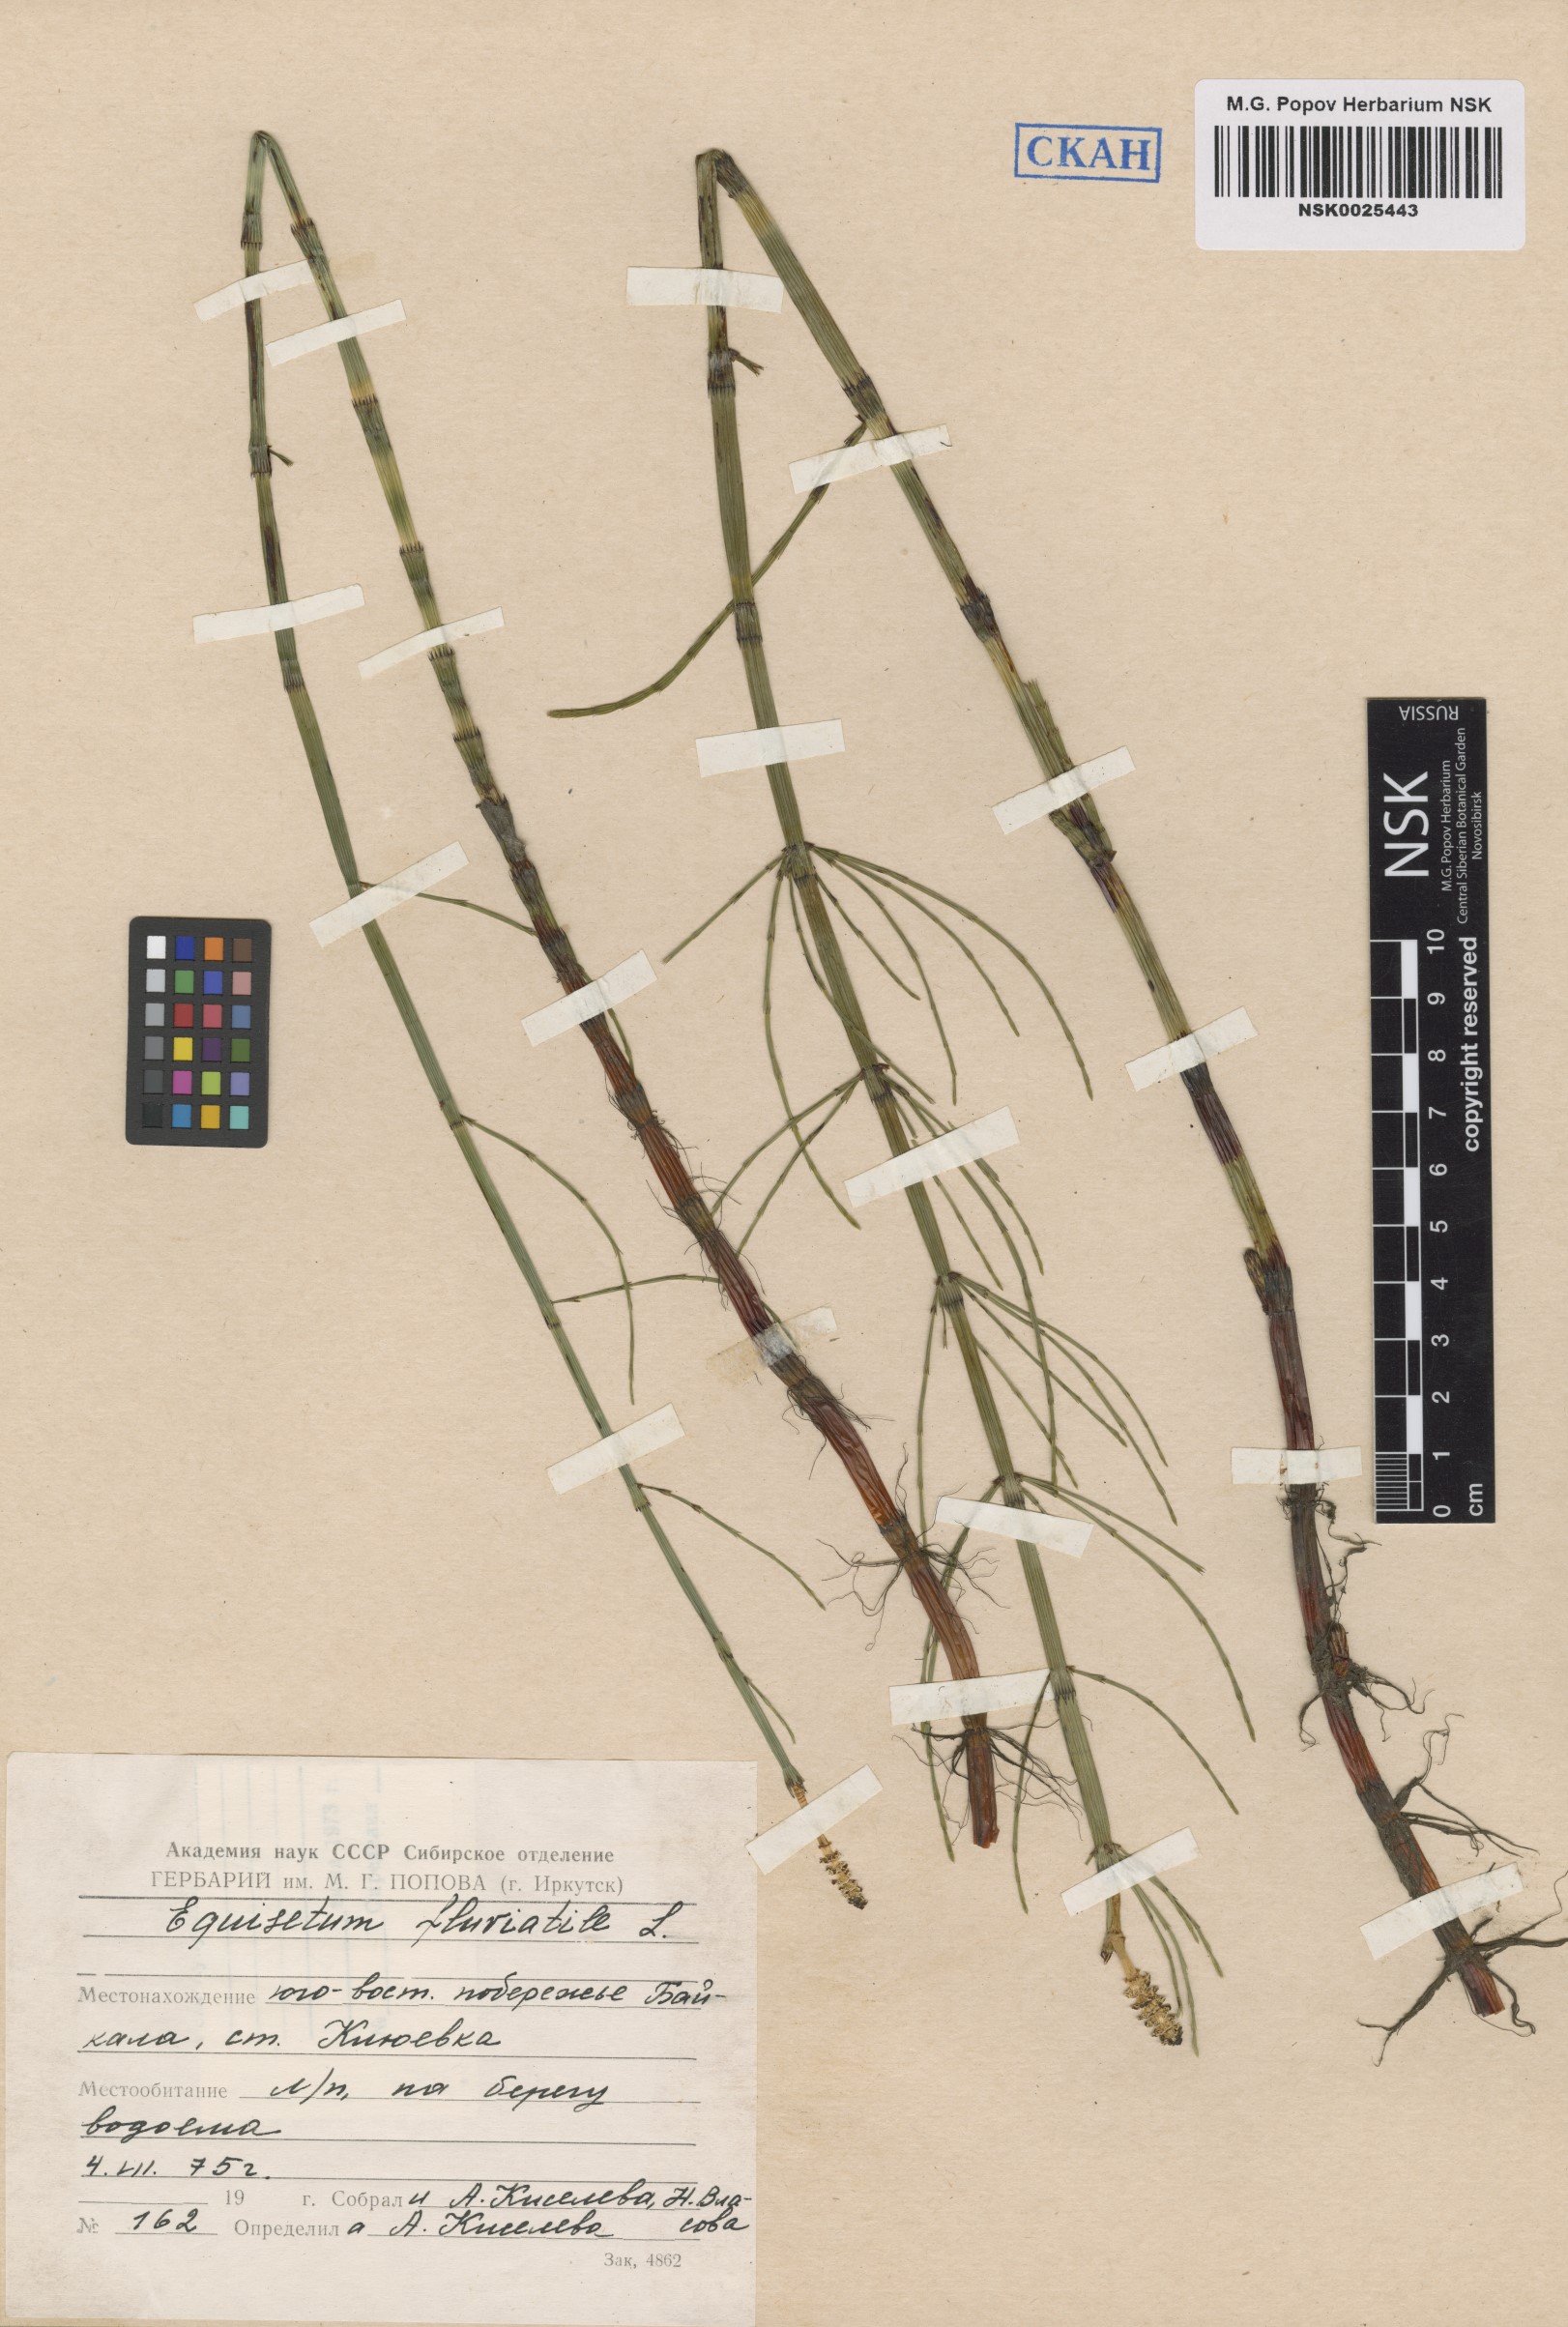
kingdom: Plantae
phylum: Tracheophyta
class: Polypodiopsida
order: Equisetales
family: Equisetaceae
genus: Equisetum
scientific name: Equisetum fluviatile
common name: Water horsetail
